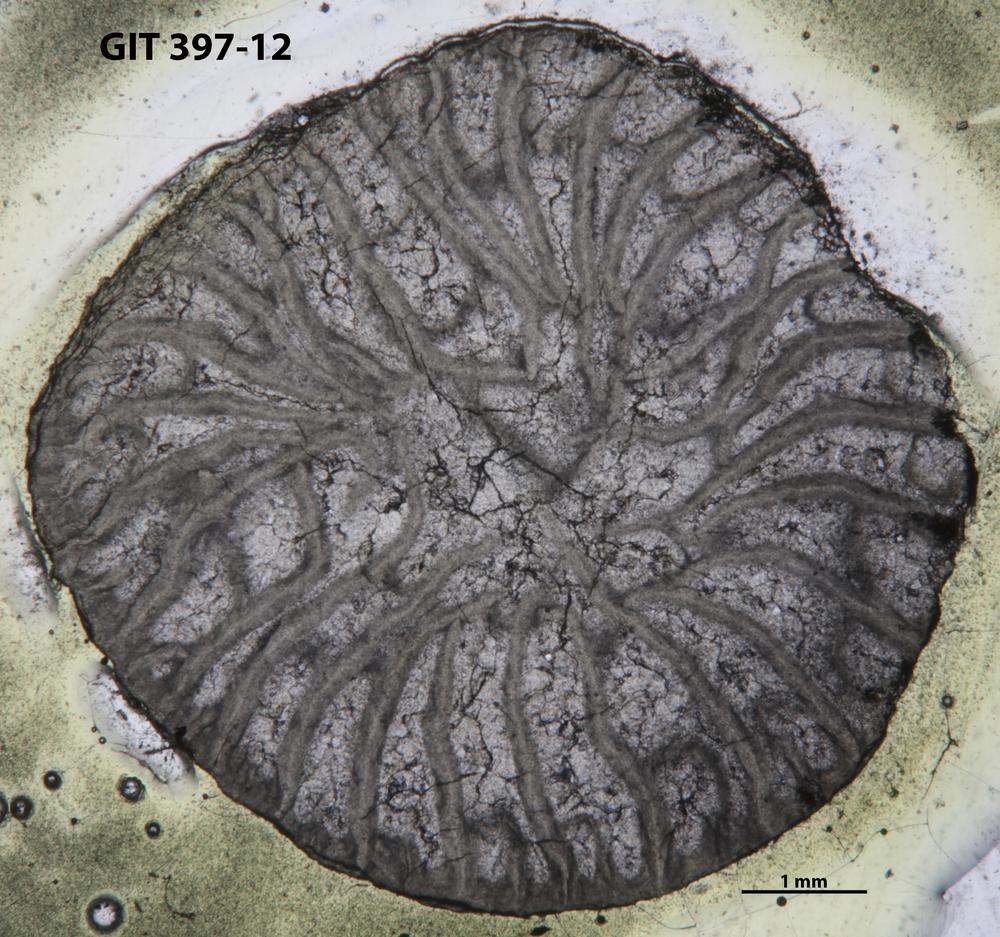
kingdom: Animalia
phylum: Cnidaria
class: Anthozoa
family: Streptelasmatidae
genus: Streptelasma
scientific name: Streptelasma
